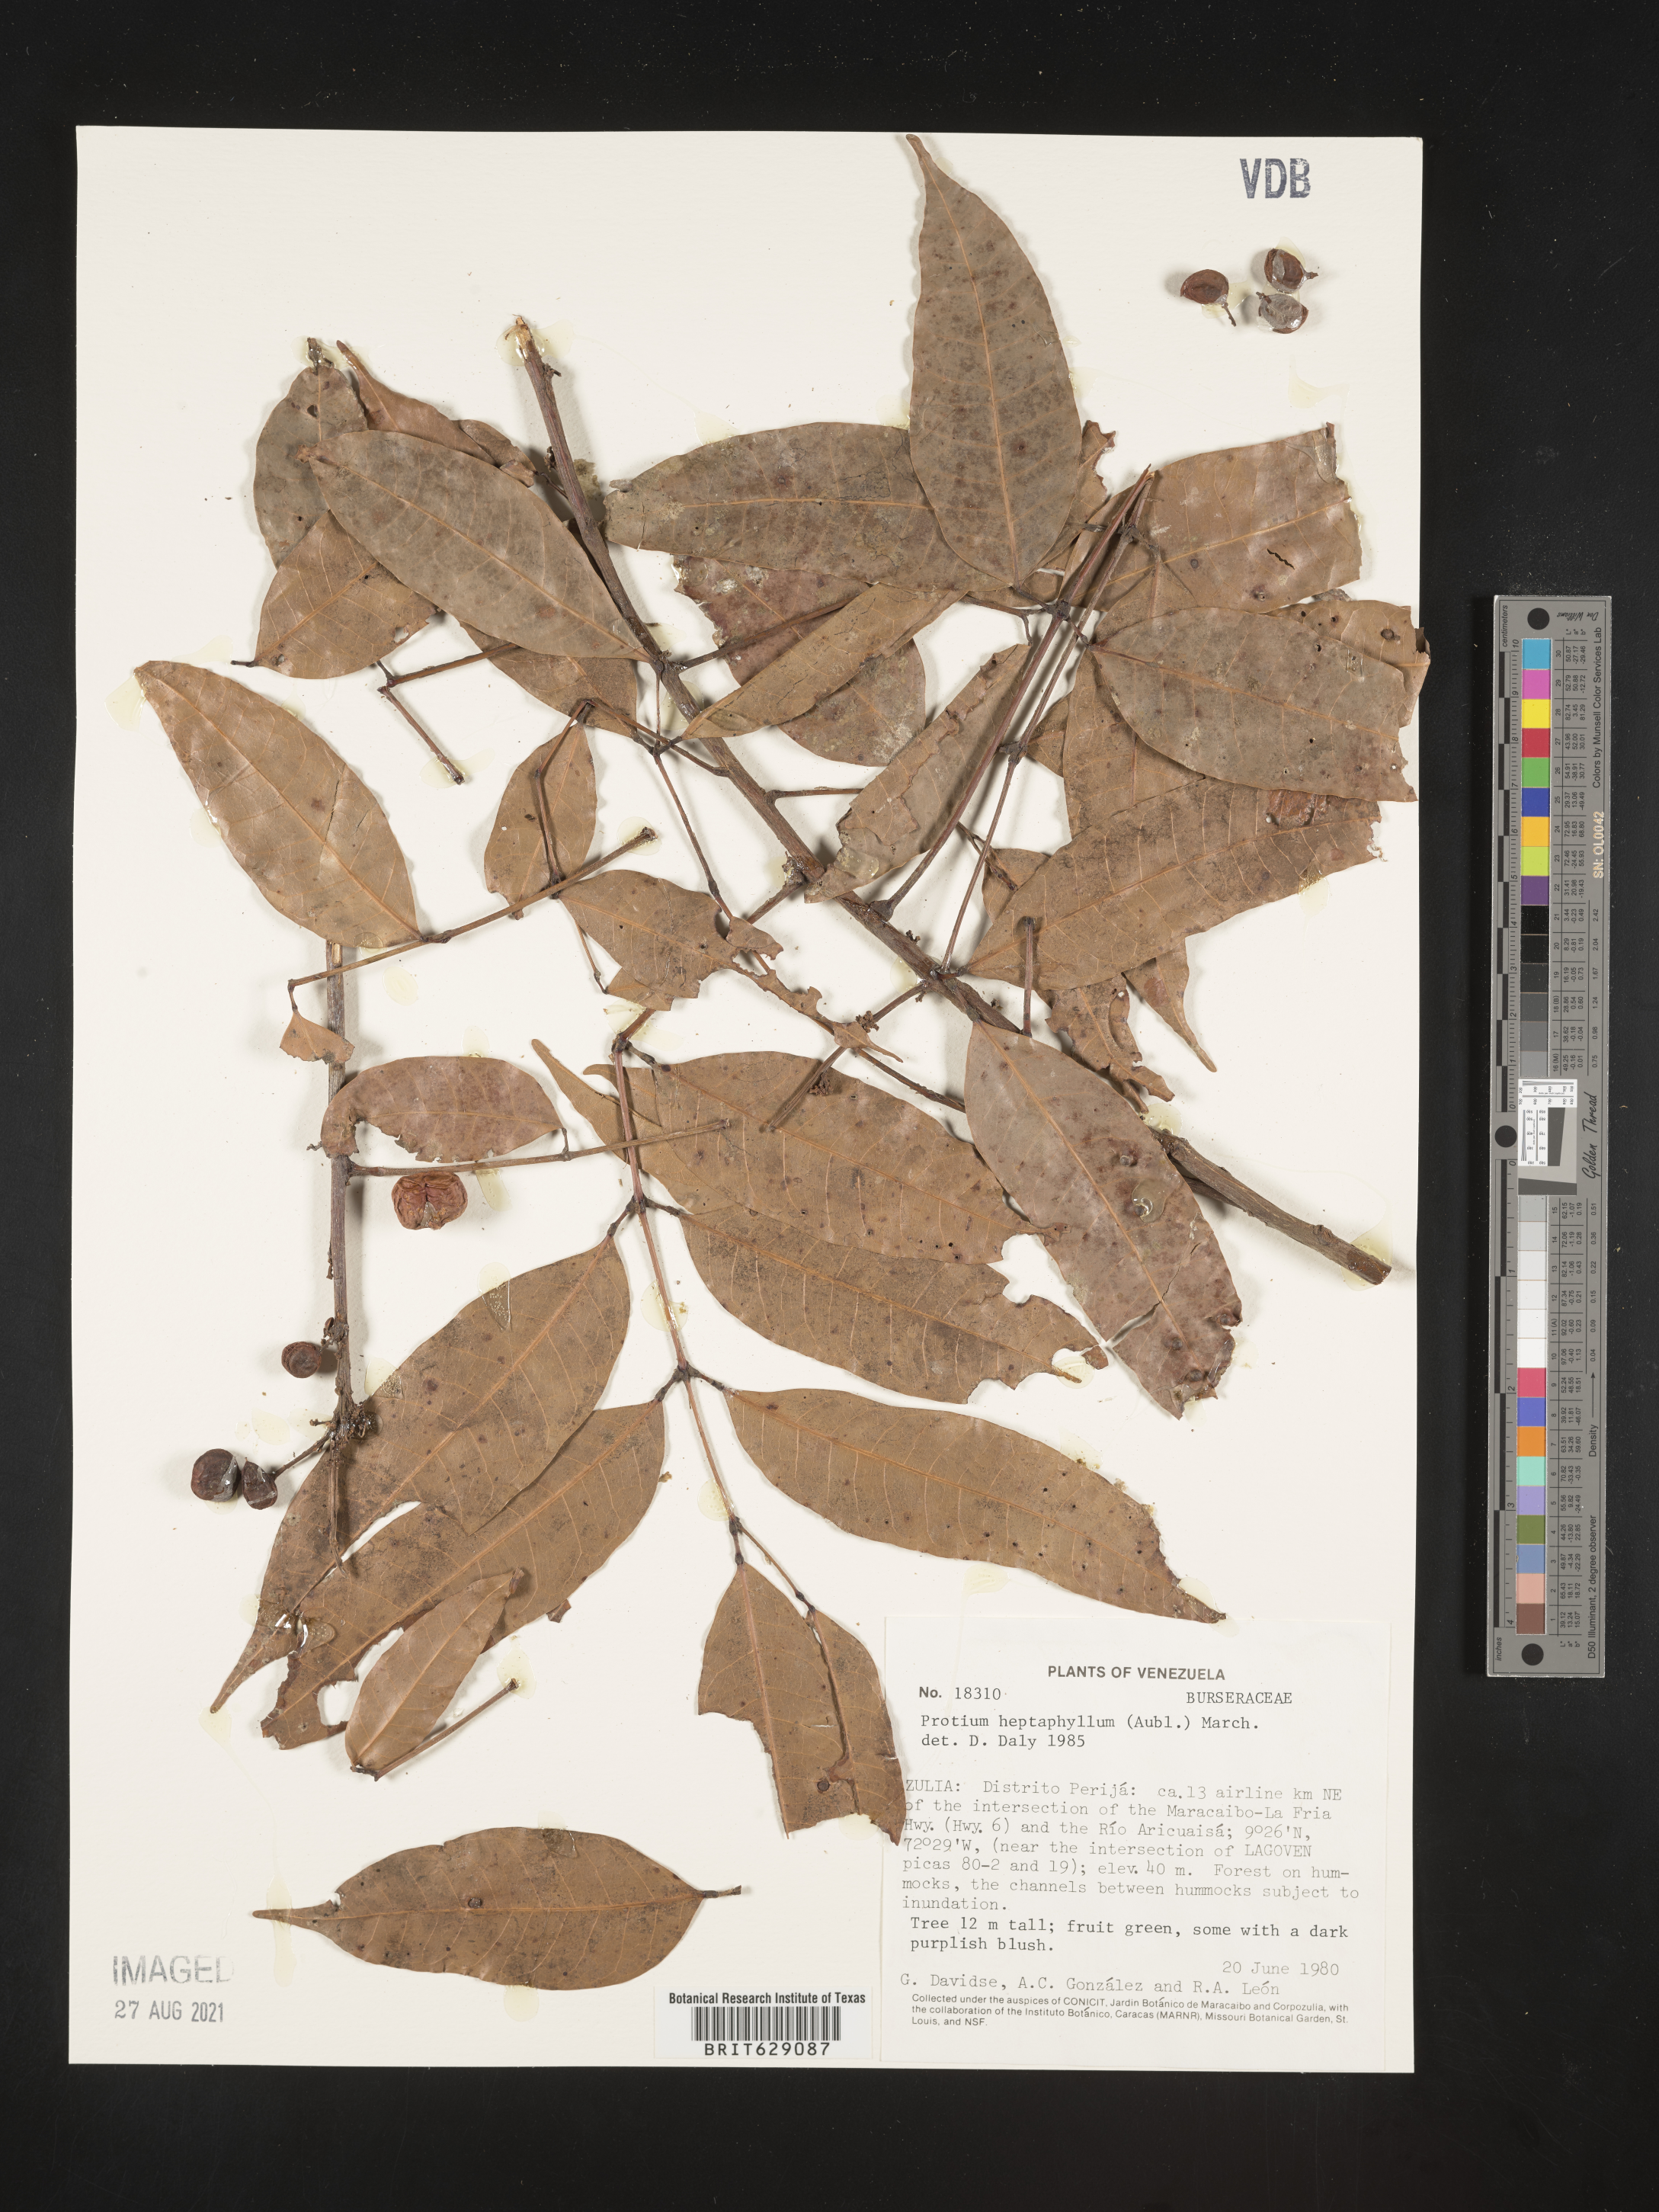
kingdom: Plantae
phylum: Tracheophyta
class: Magnoliopsida
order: Sapindales
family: Burseraceae
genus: Protium
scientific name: Protium heptaphyllum
